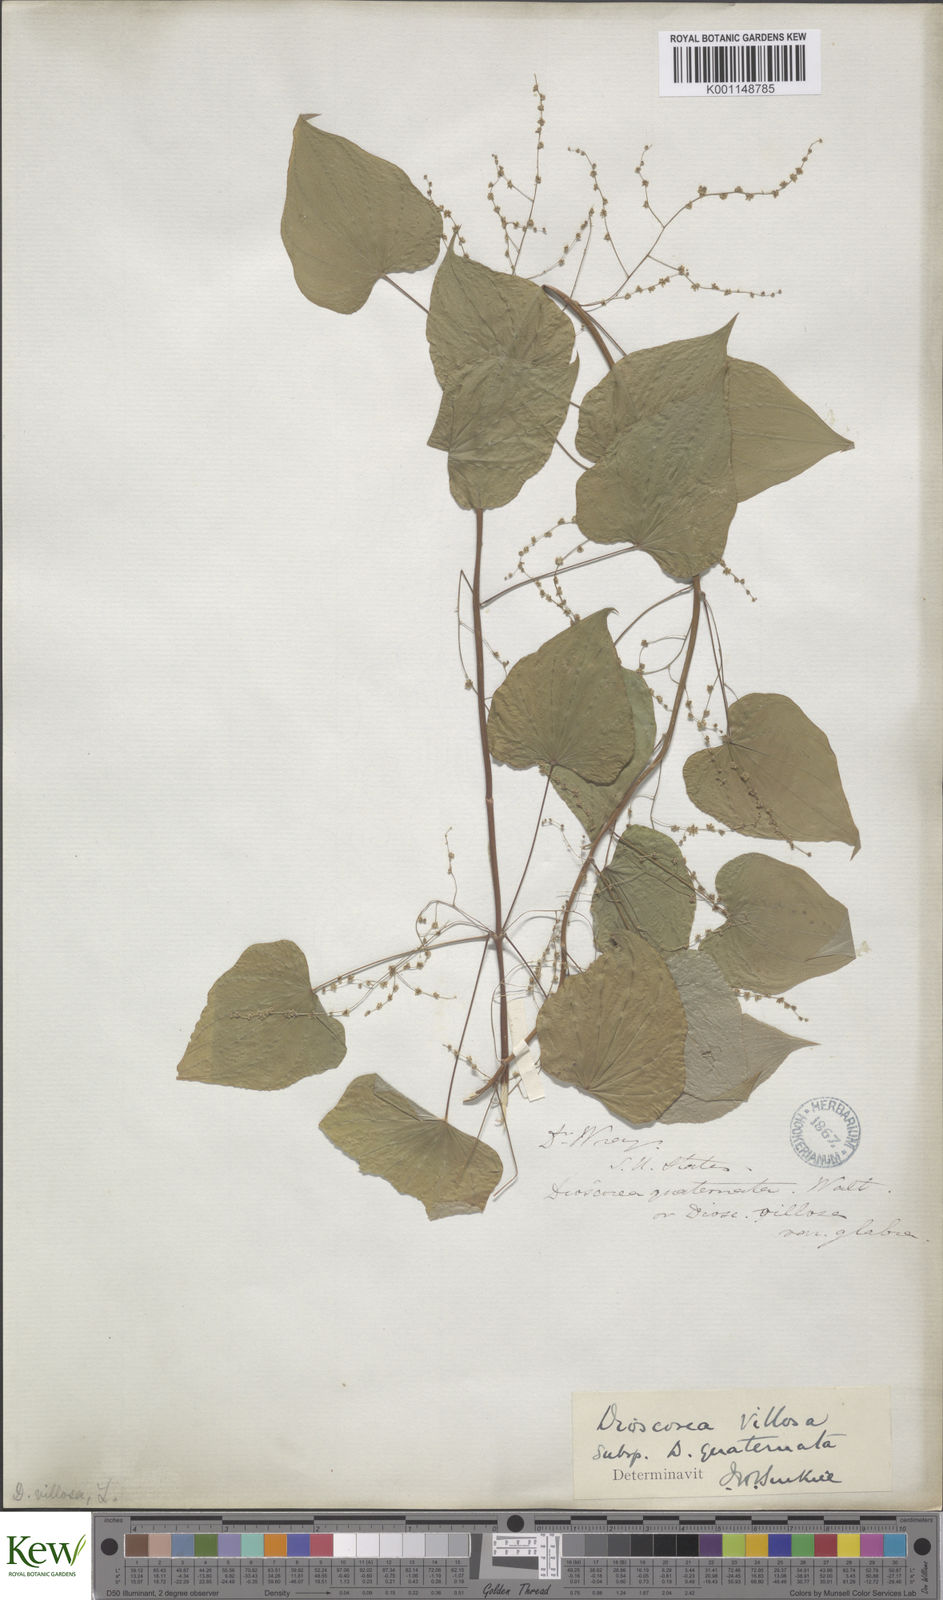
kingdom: Plantae
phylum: Tracheophyta
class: Liliopsida
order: Dioscoreales
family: Dioscoreaceae
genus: Dioscorea
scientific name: Dioscorea villosa
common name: Wild yam
